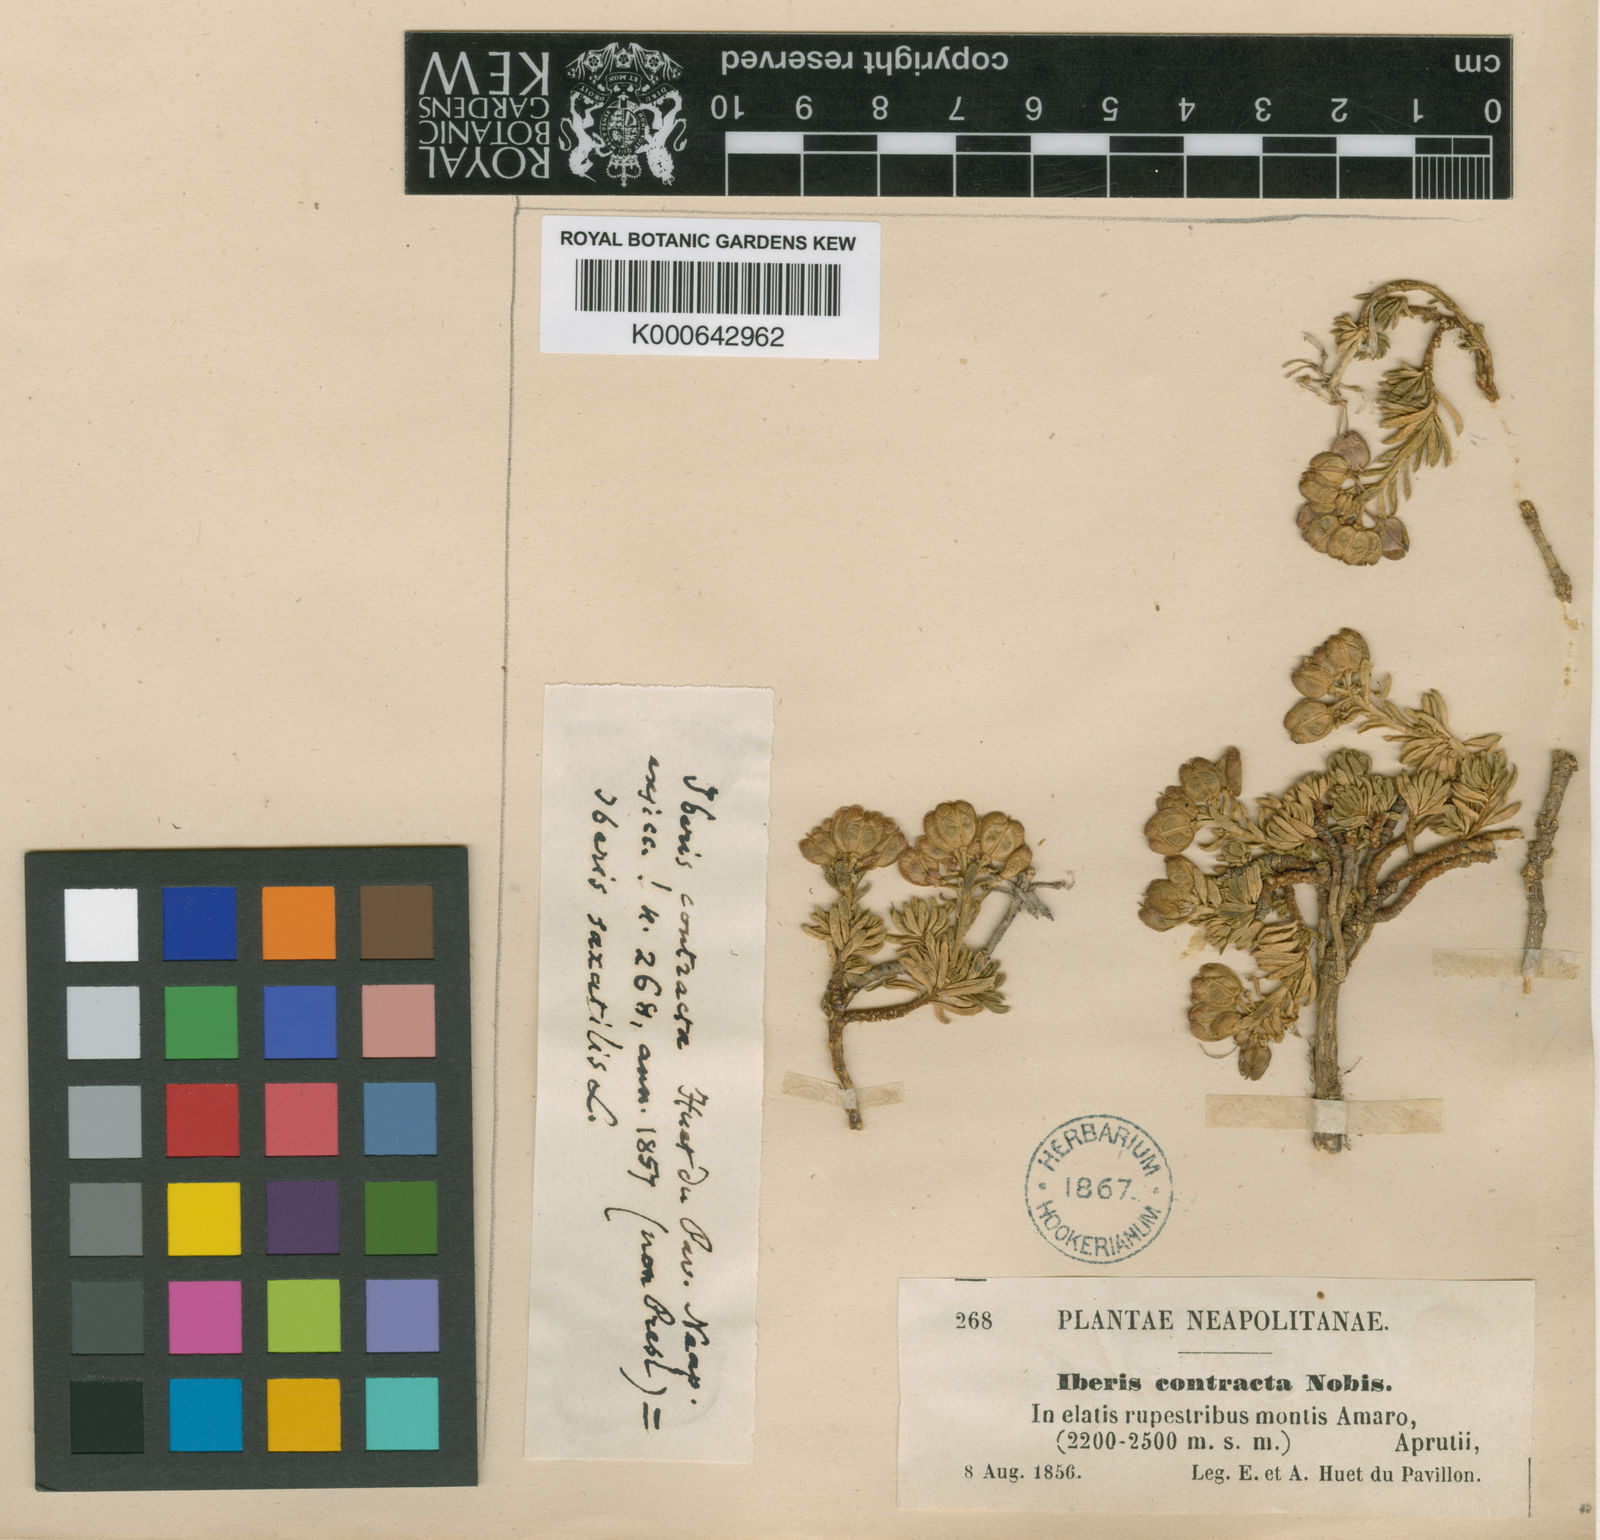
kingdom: Plantae
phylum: Tracheophyta
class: Magnoliopsida
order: Brassicales
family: Brassicaceae
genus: Iberis
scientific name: Iberis saxatilis
